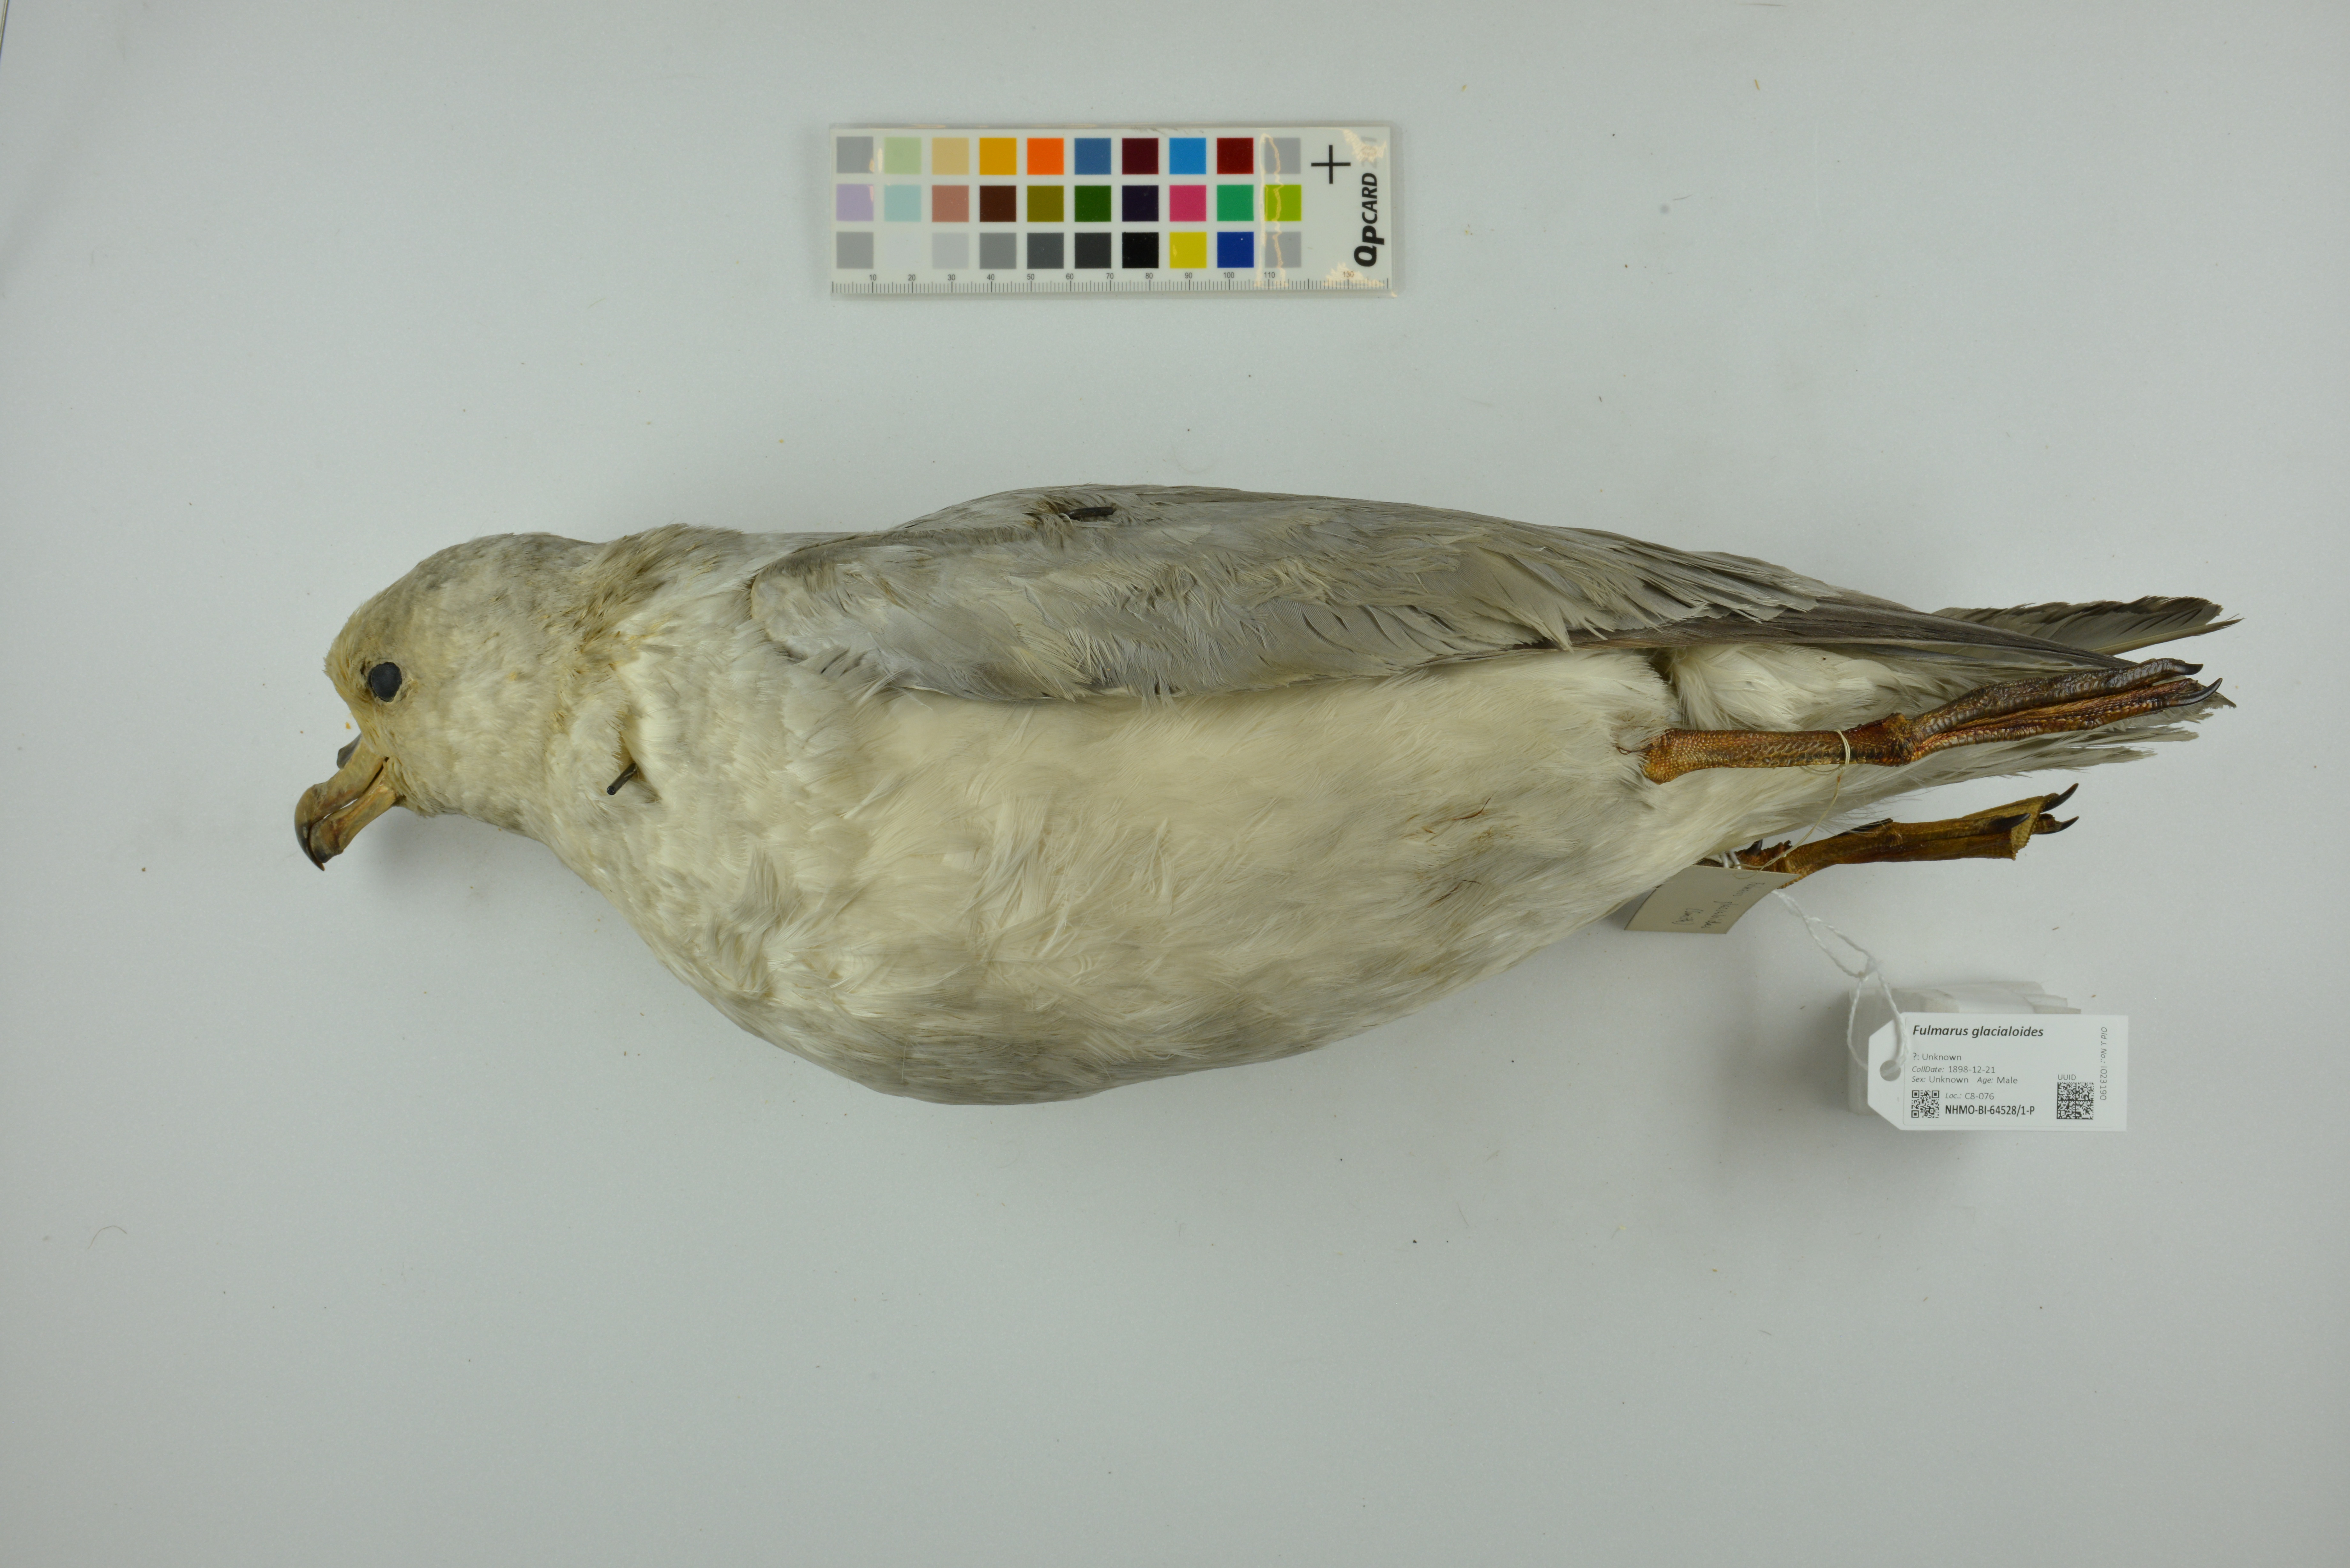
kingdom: Animalia
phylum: Chordata
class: Aves
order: Procellariiformes
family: Procellariidae
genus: Fulmarus
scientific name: Fulmarus glacialoides
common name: Southern fulmar
